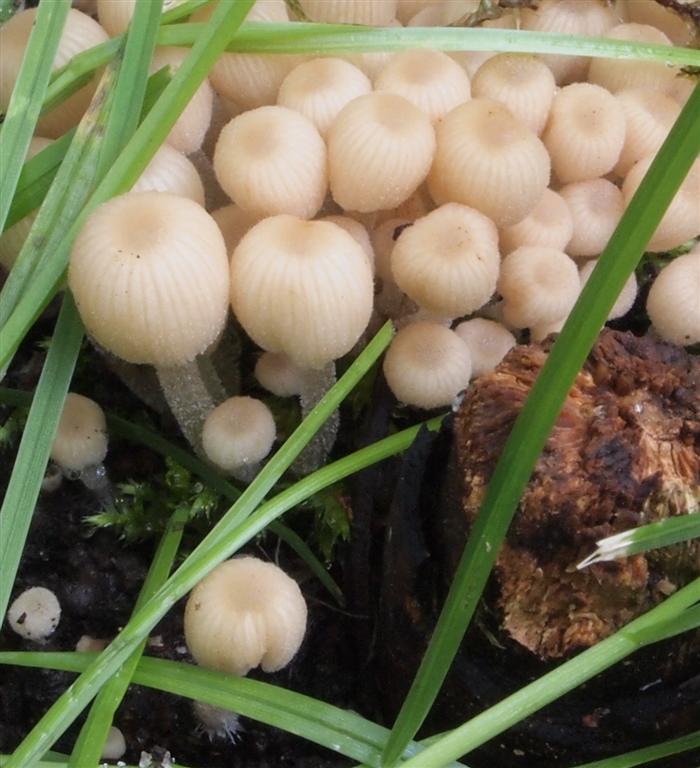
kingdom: Fungi
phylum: Basidiomycota
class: Agaricomycetes
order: Agaricales
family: Psathyrellaceae
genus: Coprinellus
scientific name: Coprinellus disseminatus
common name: bredsået blækhat
